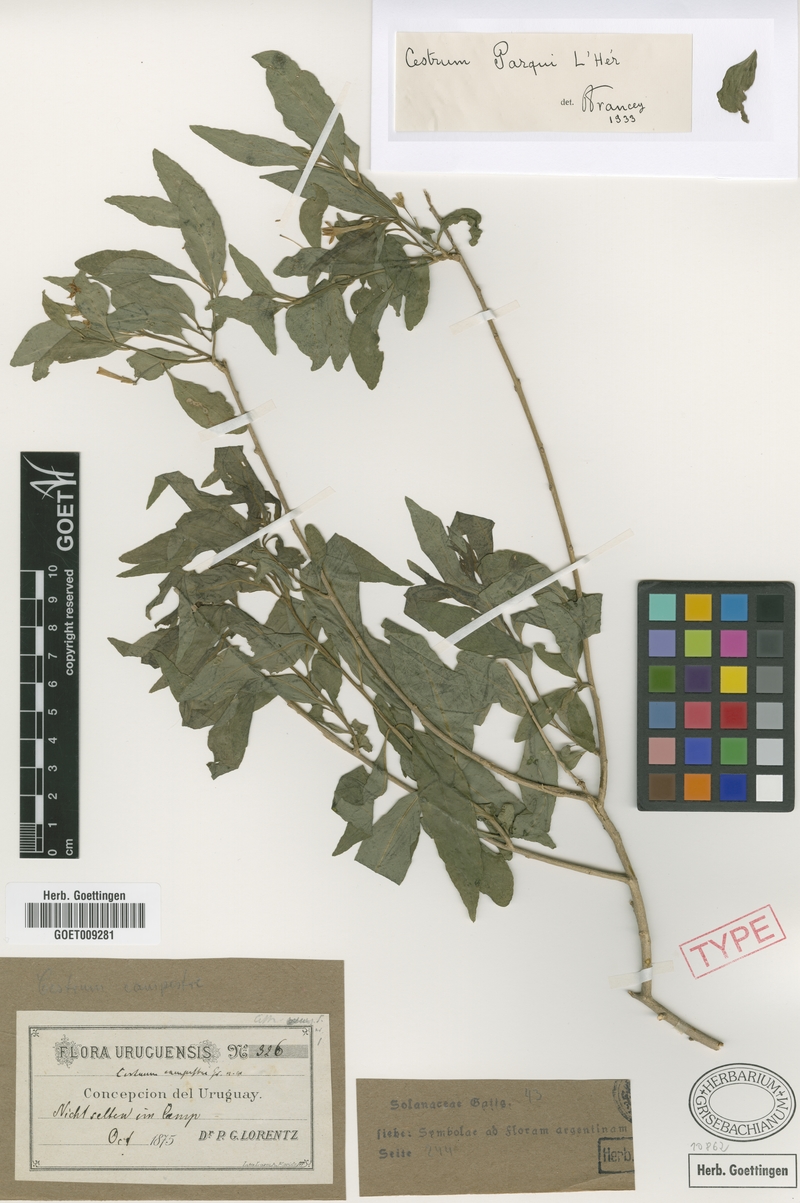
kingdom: Plantae
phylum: Tracheophyta
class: Magnoliopsida
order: Solanales
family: Solanaceae
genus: Cestrum
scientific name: Cestrum thyrsoideum
